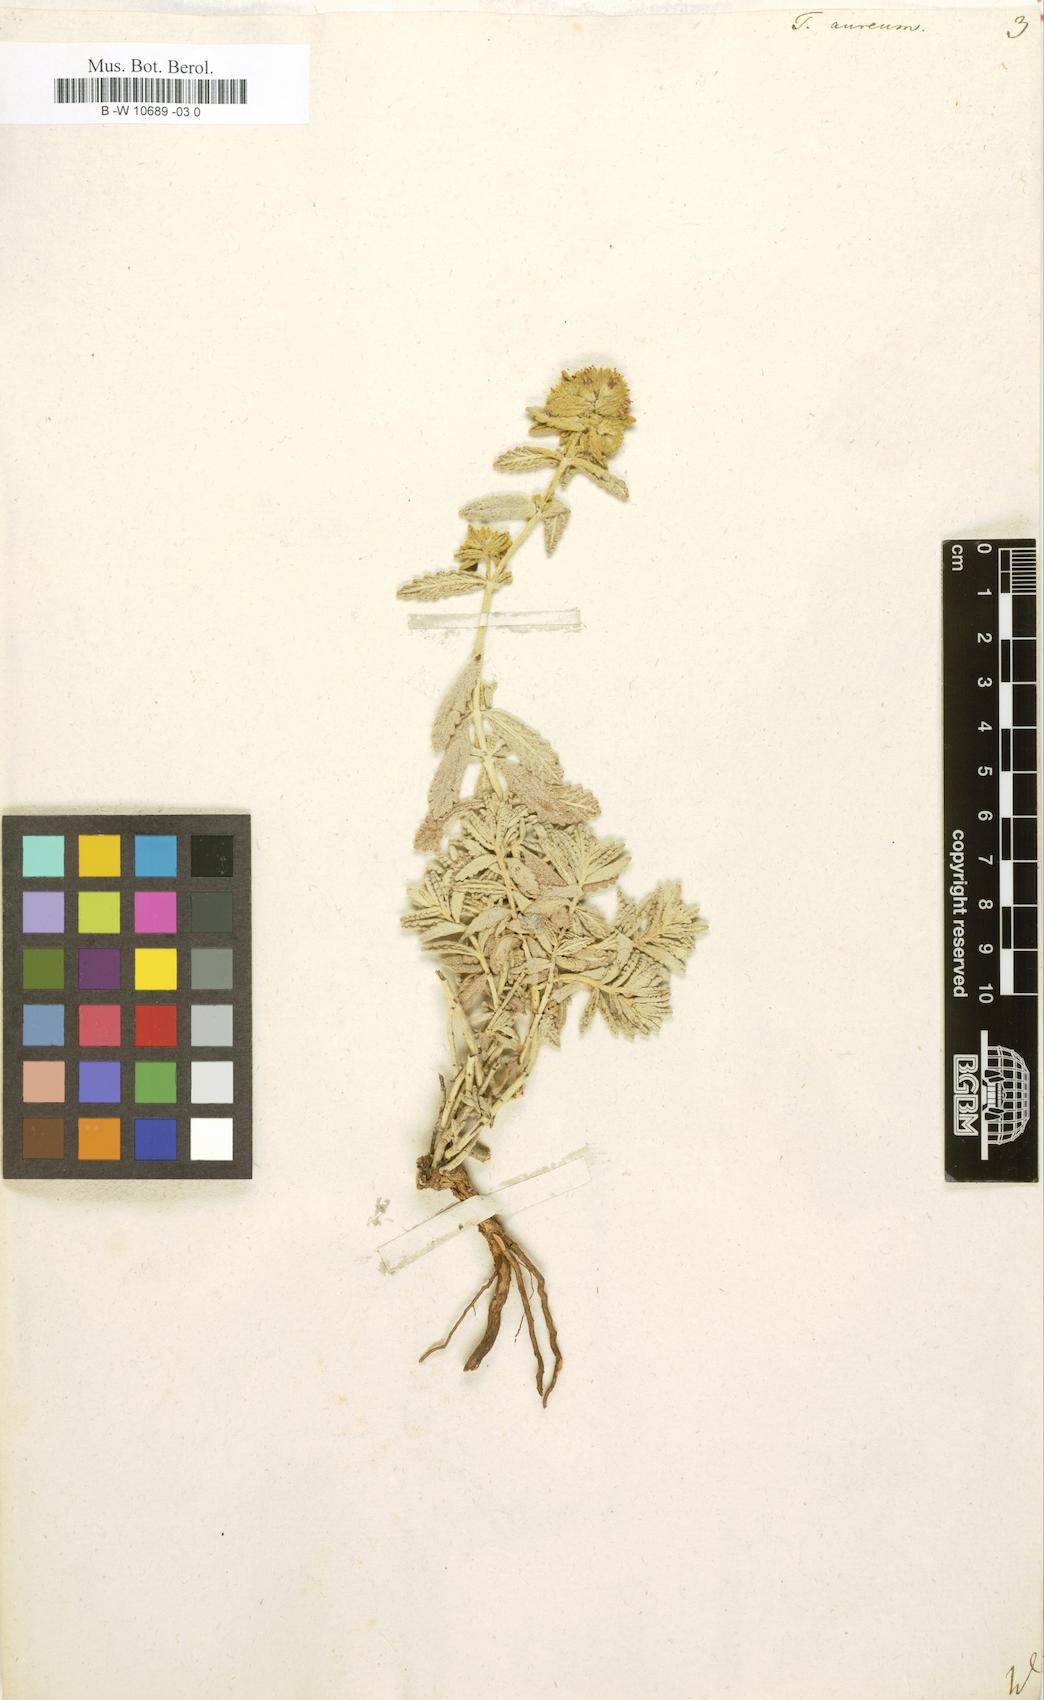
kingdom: Plantae
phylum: Tracheophyta
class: Magnoliopsida
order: Lamiales
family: Lamiaceae
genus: Teucrium
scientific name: Teucrium aureum
